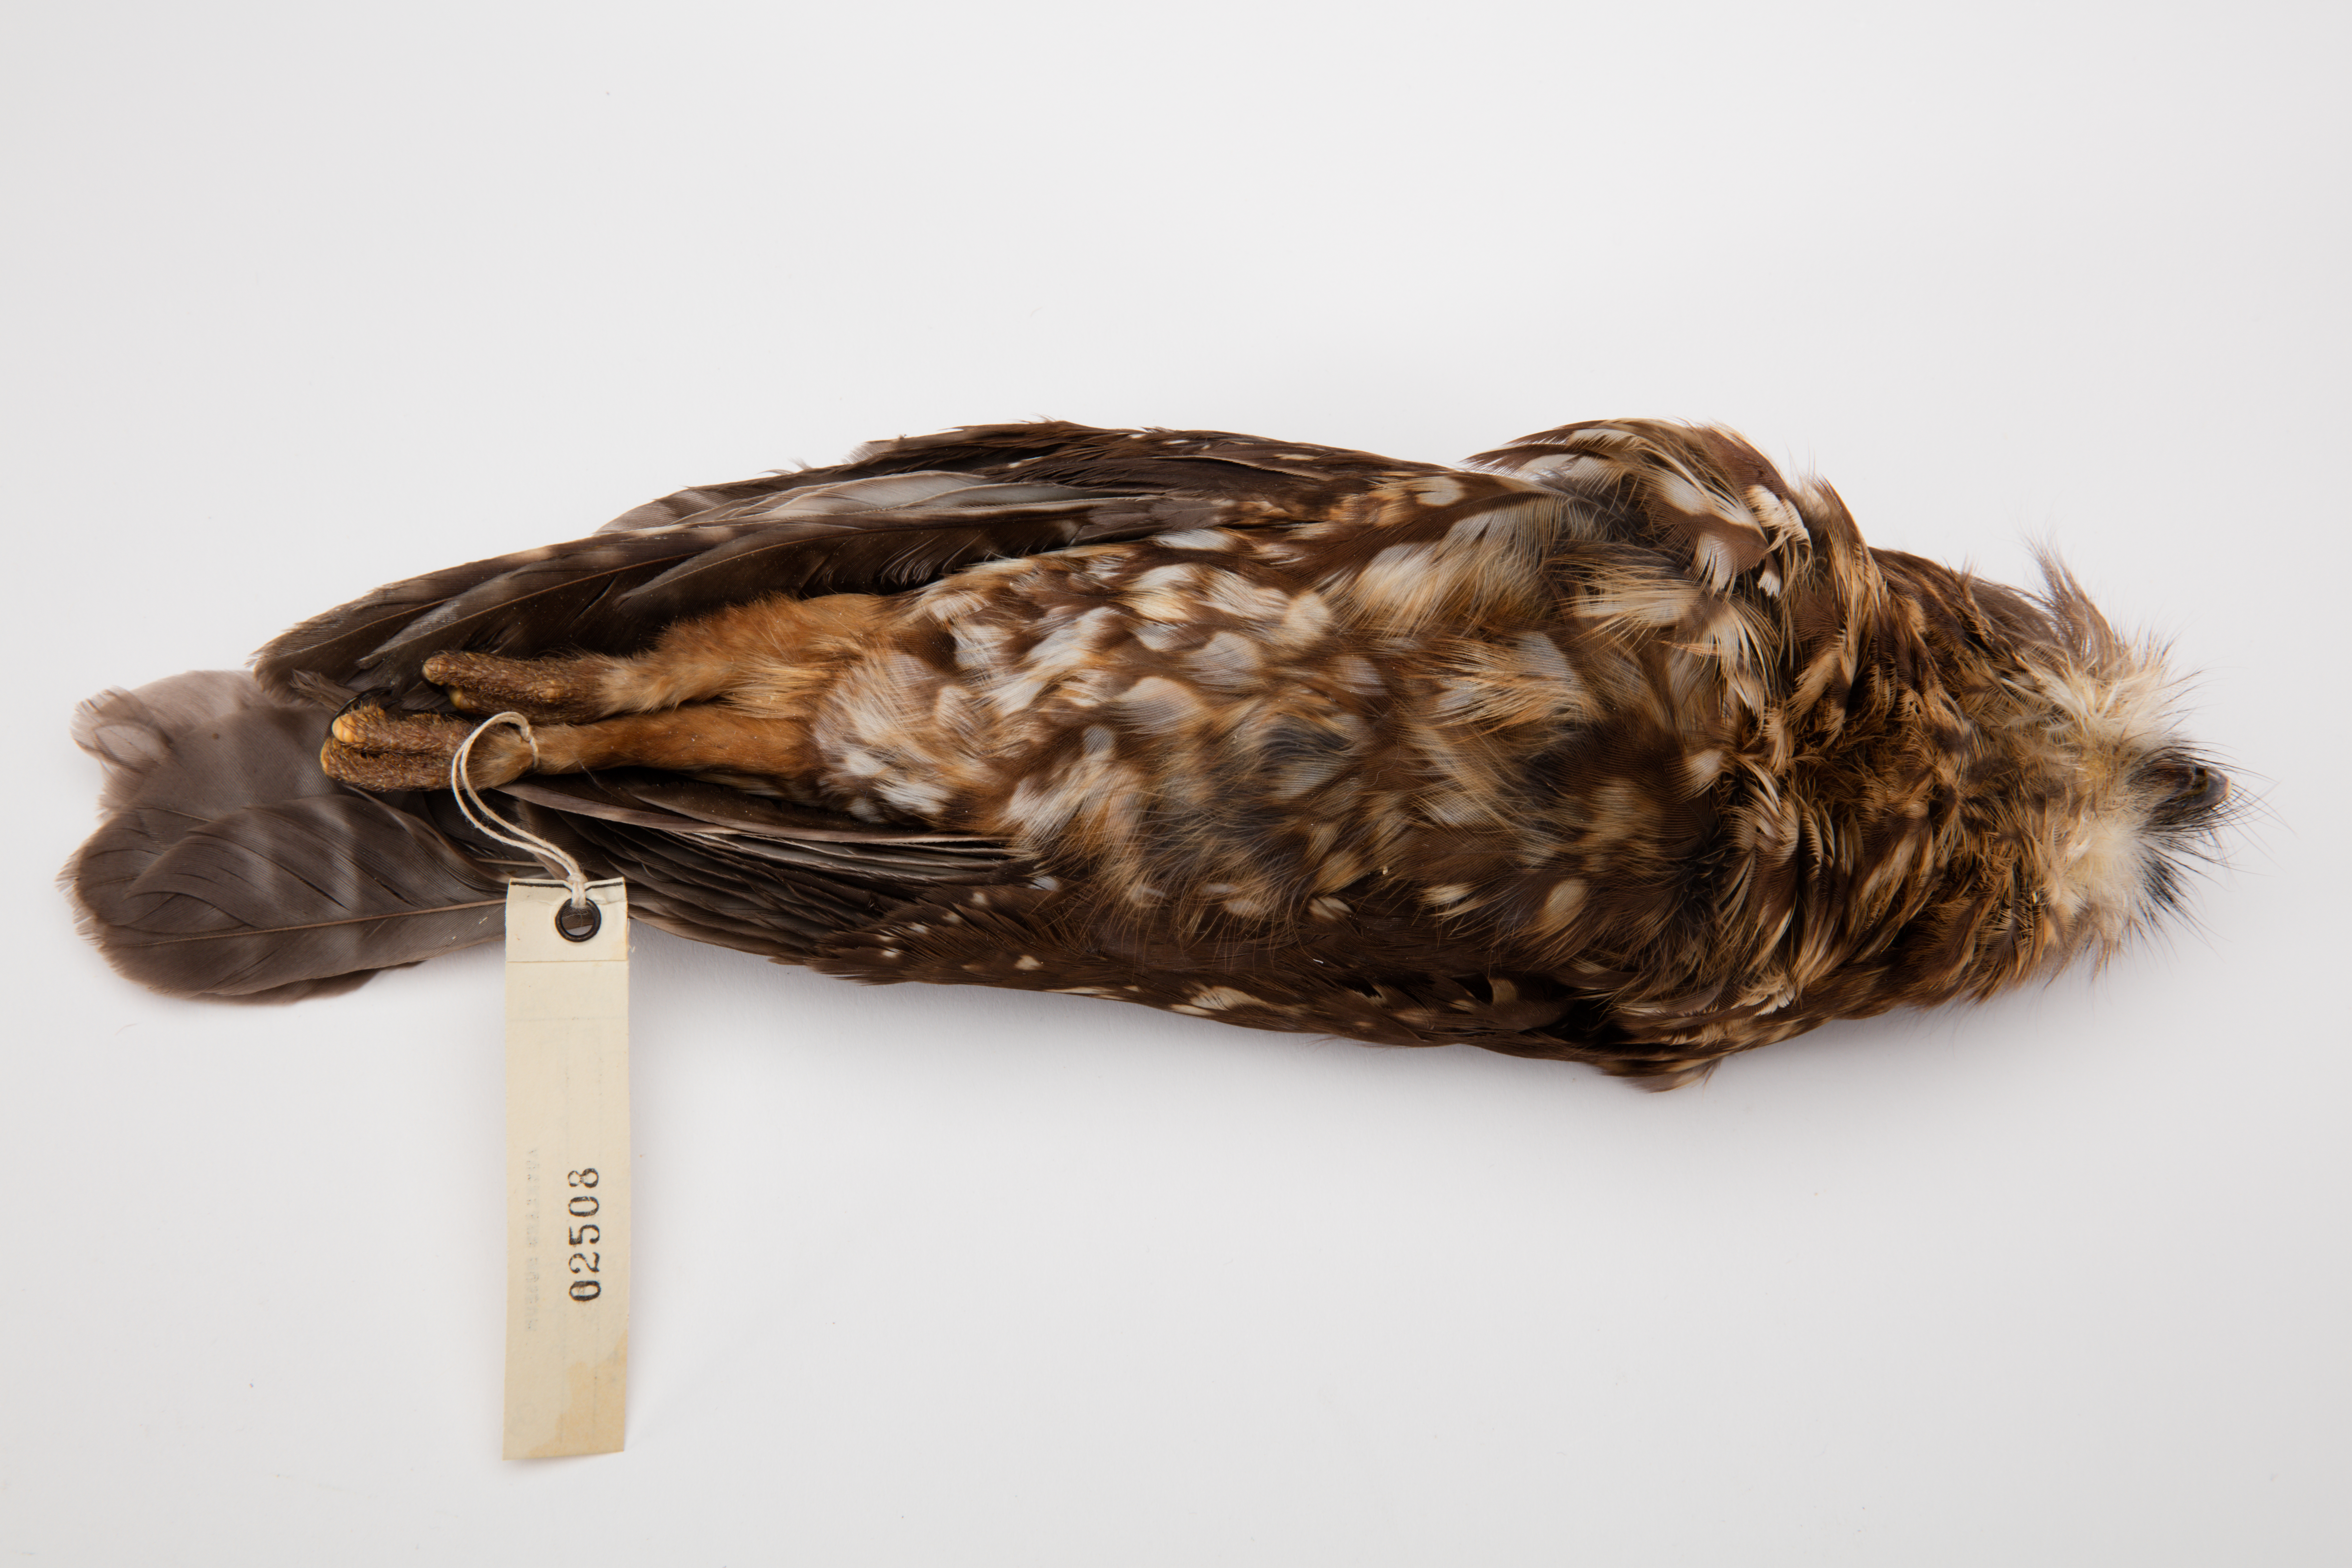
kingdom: Animalia
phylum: Chordata
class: Aves
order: Strigiformes
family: Strigidae
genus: Ninox
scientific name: Ninox novaeseelandiae
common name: Morepork
